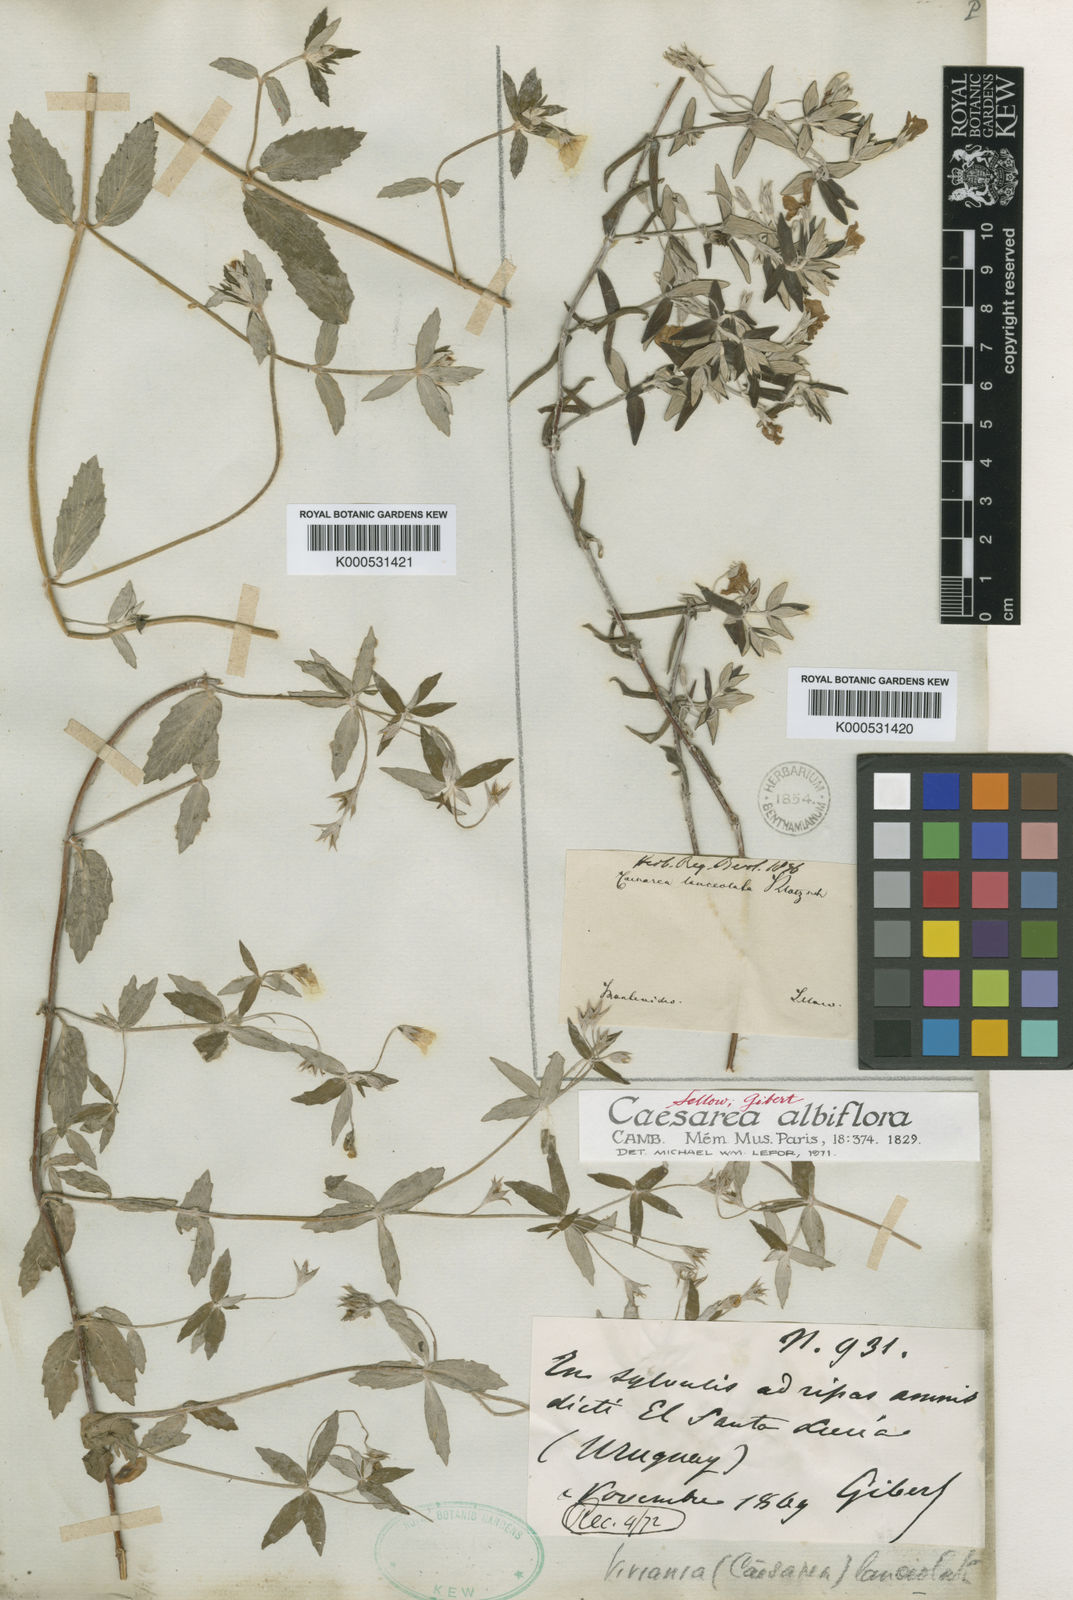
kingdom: Plantae
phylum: Tracheophyta
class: Magnoliopsida
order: Geraniales
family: Vivianiaceae
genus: Viviania
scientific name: Viviania
